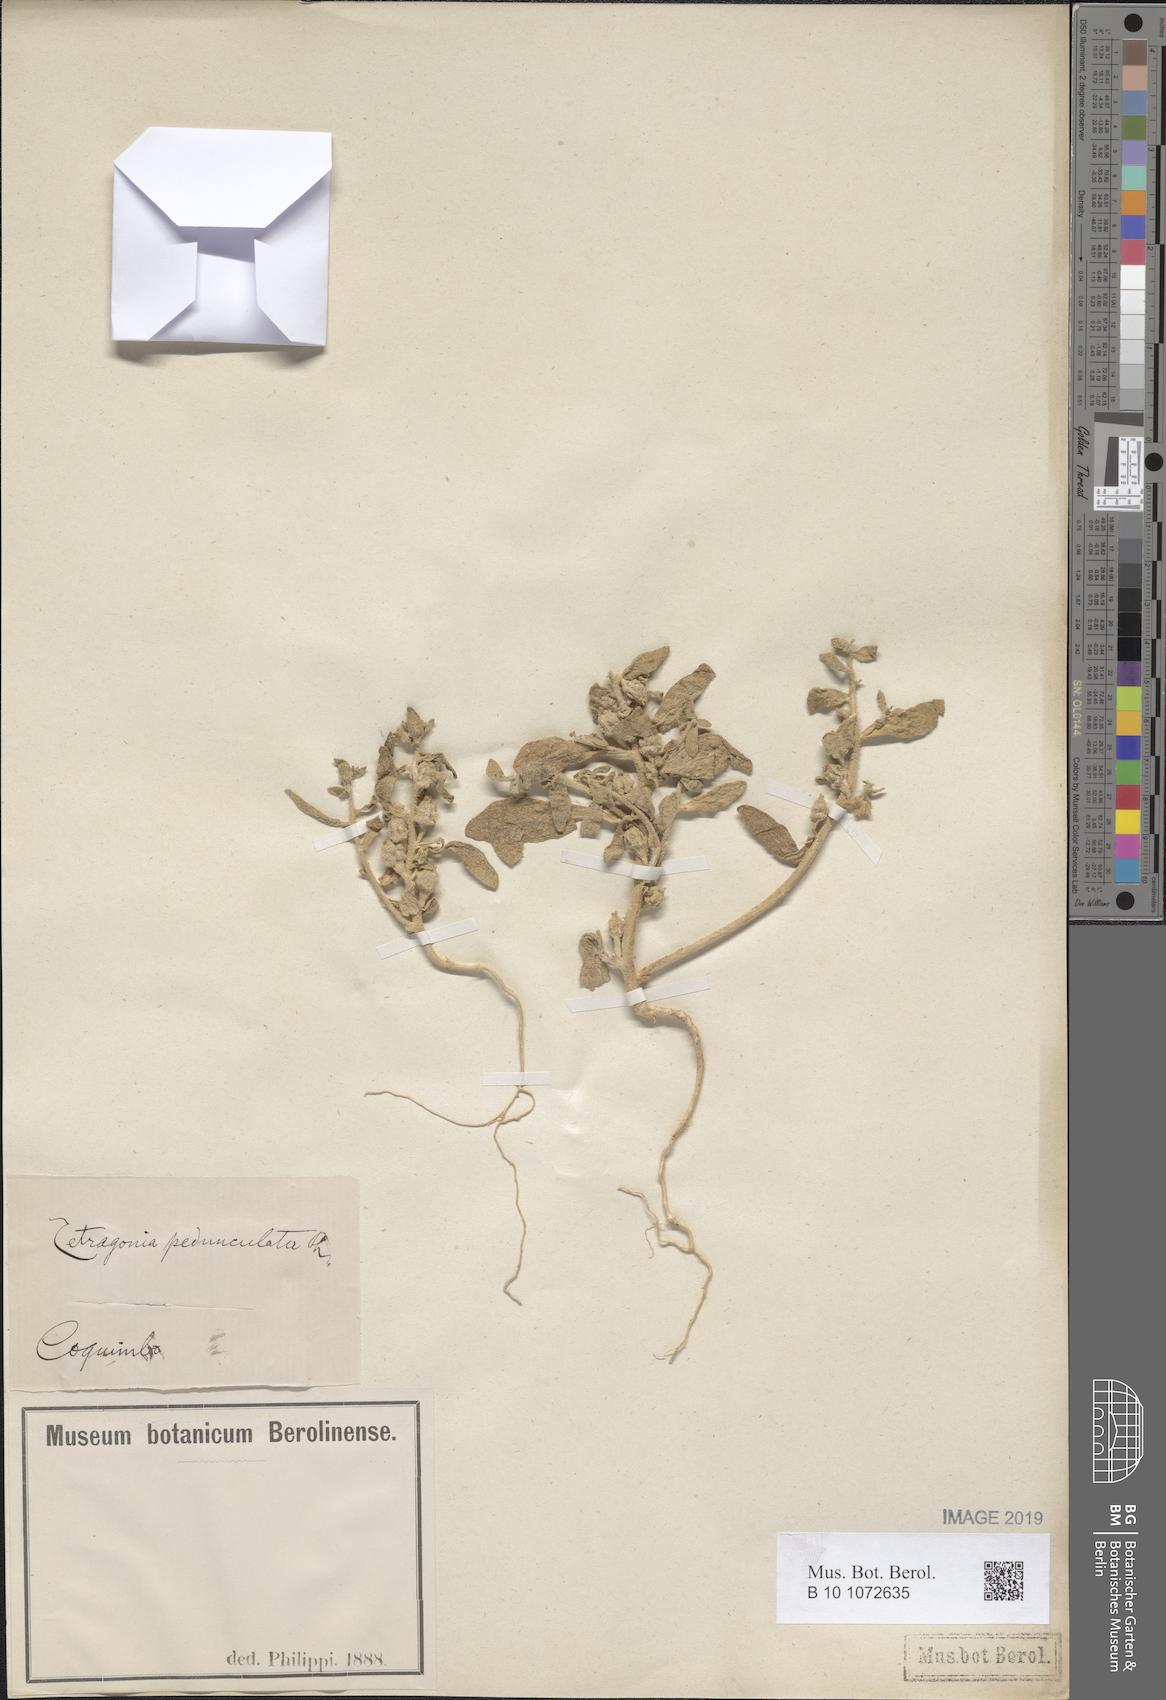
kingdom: Plantae
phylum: Tracheophyta
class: Magnoliopsida
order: Caryophyllales
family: Aizoaceae
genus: Tetragonia
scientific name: Tetragonia pedunculata
